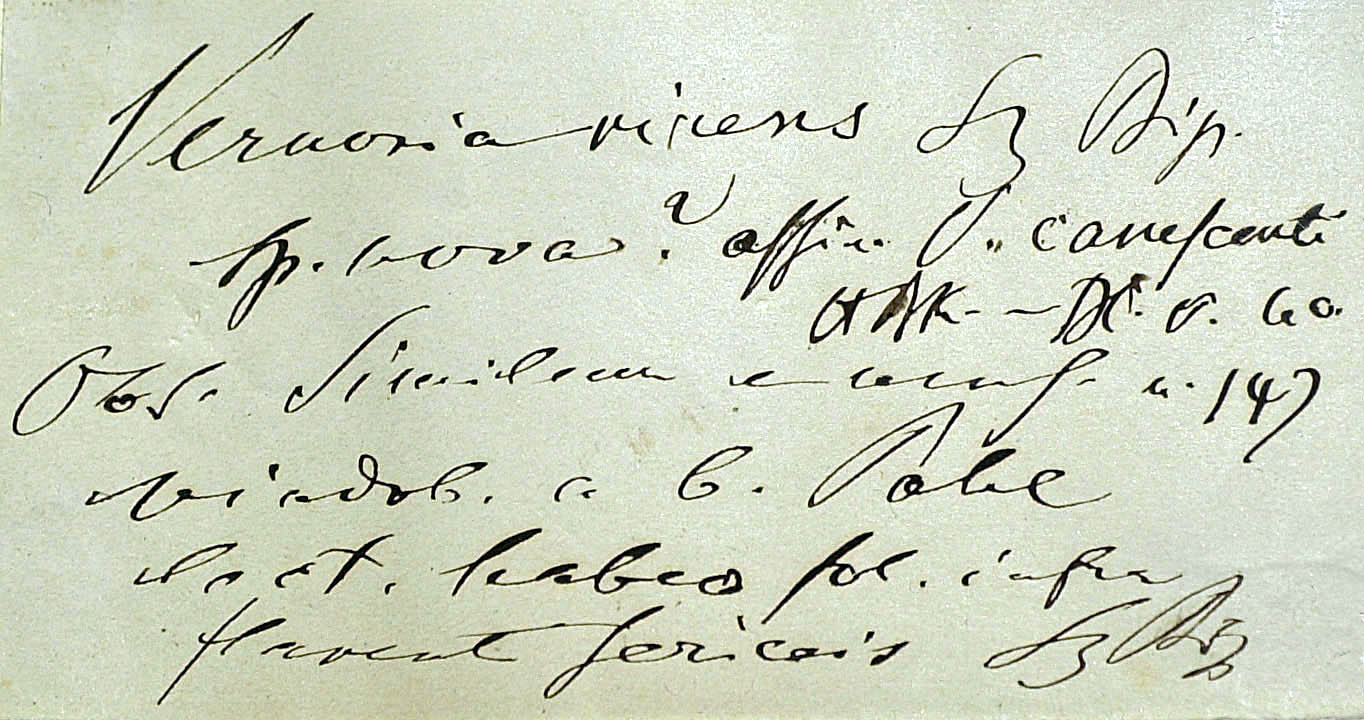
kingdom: Plantae
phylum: Tracheophyta
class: Magnoliopsida
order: Asterales
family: Asteraceae
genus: Lepidaploa
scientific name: Lepidaploa salzmannii
